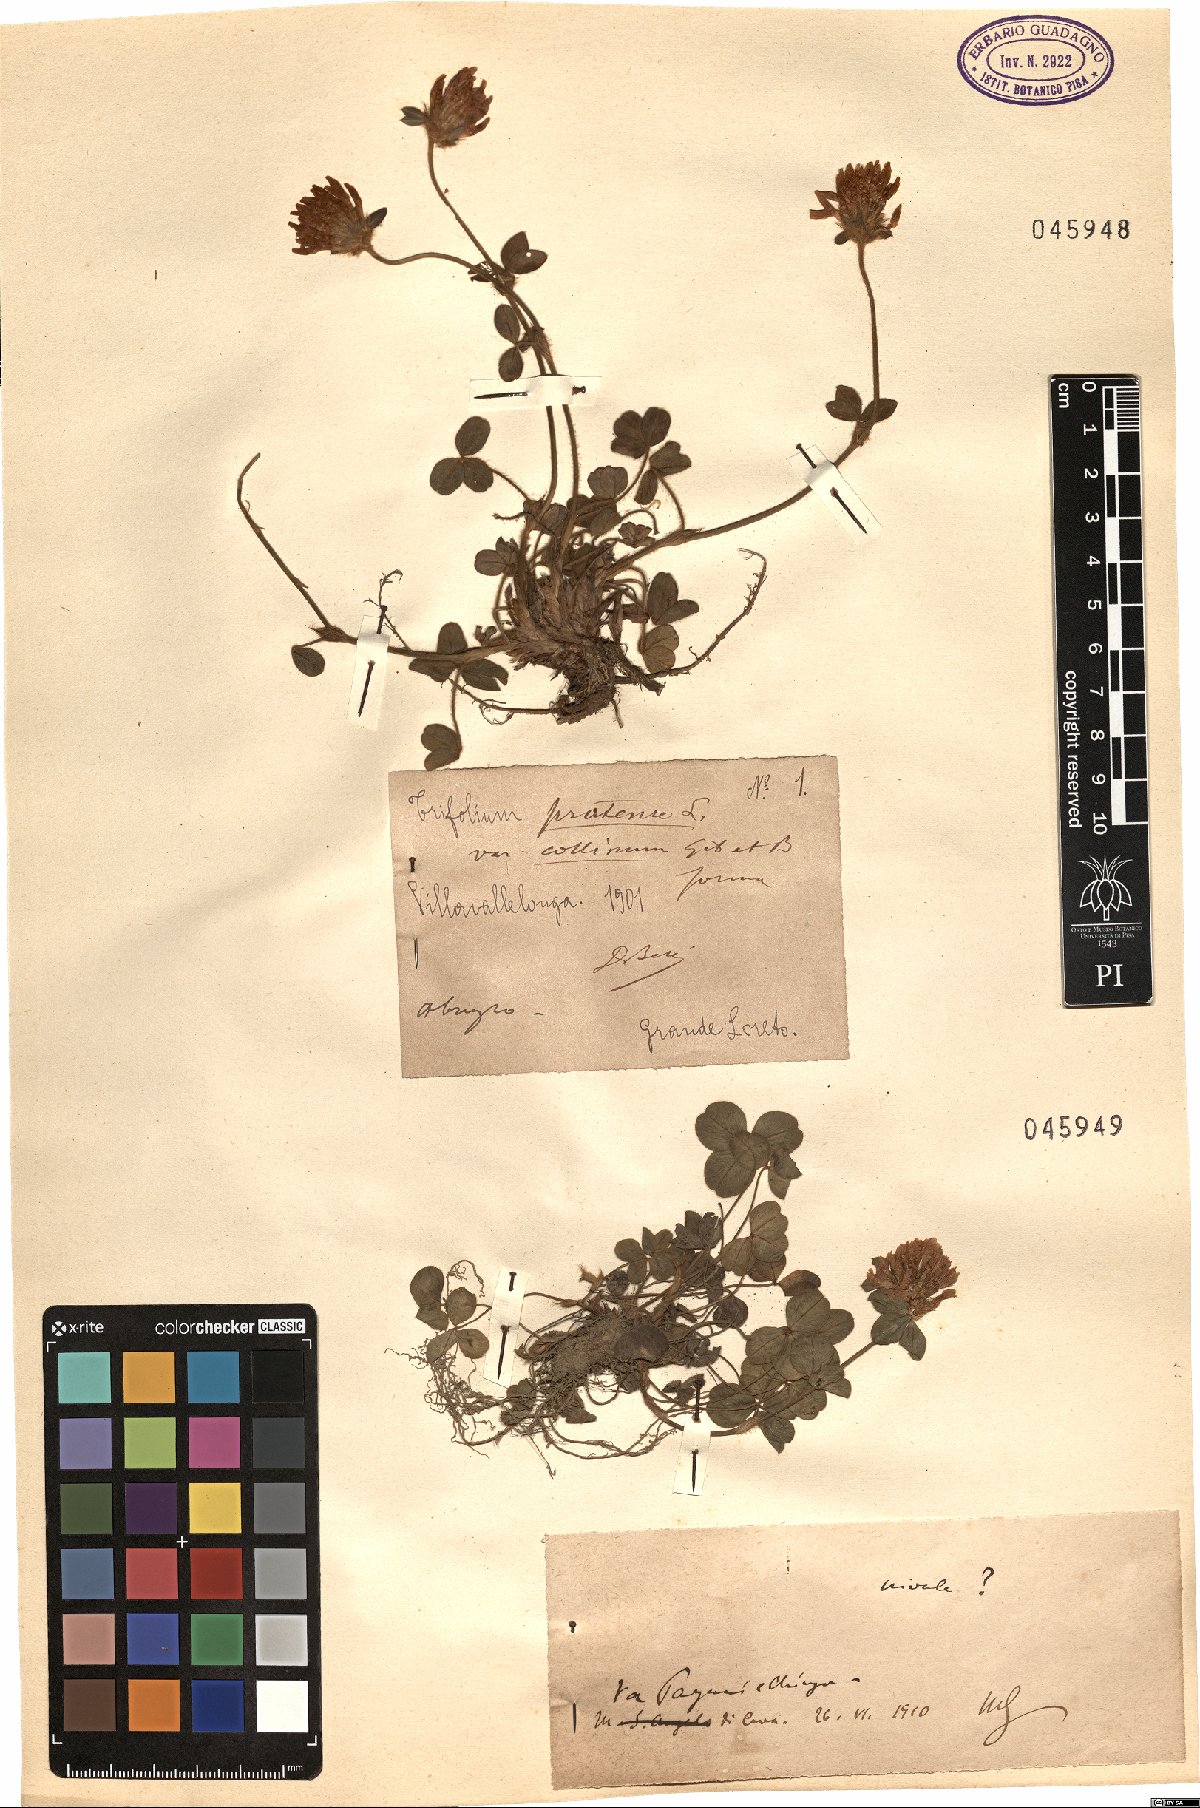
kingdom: Plantae
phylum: Tracheophyta
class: Magnoliopsida
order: Fabales
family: Fabaceae
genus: Trifolium
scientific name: Trifolium pratense
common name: Red clover
